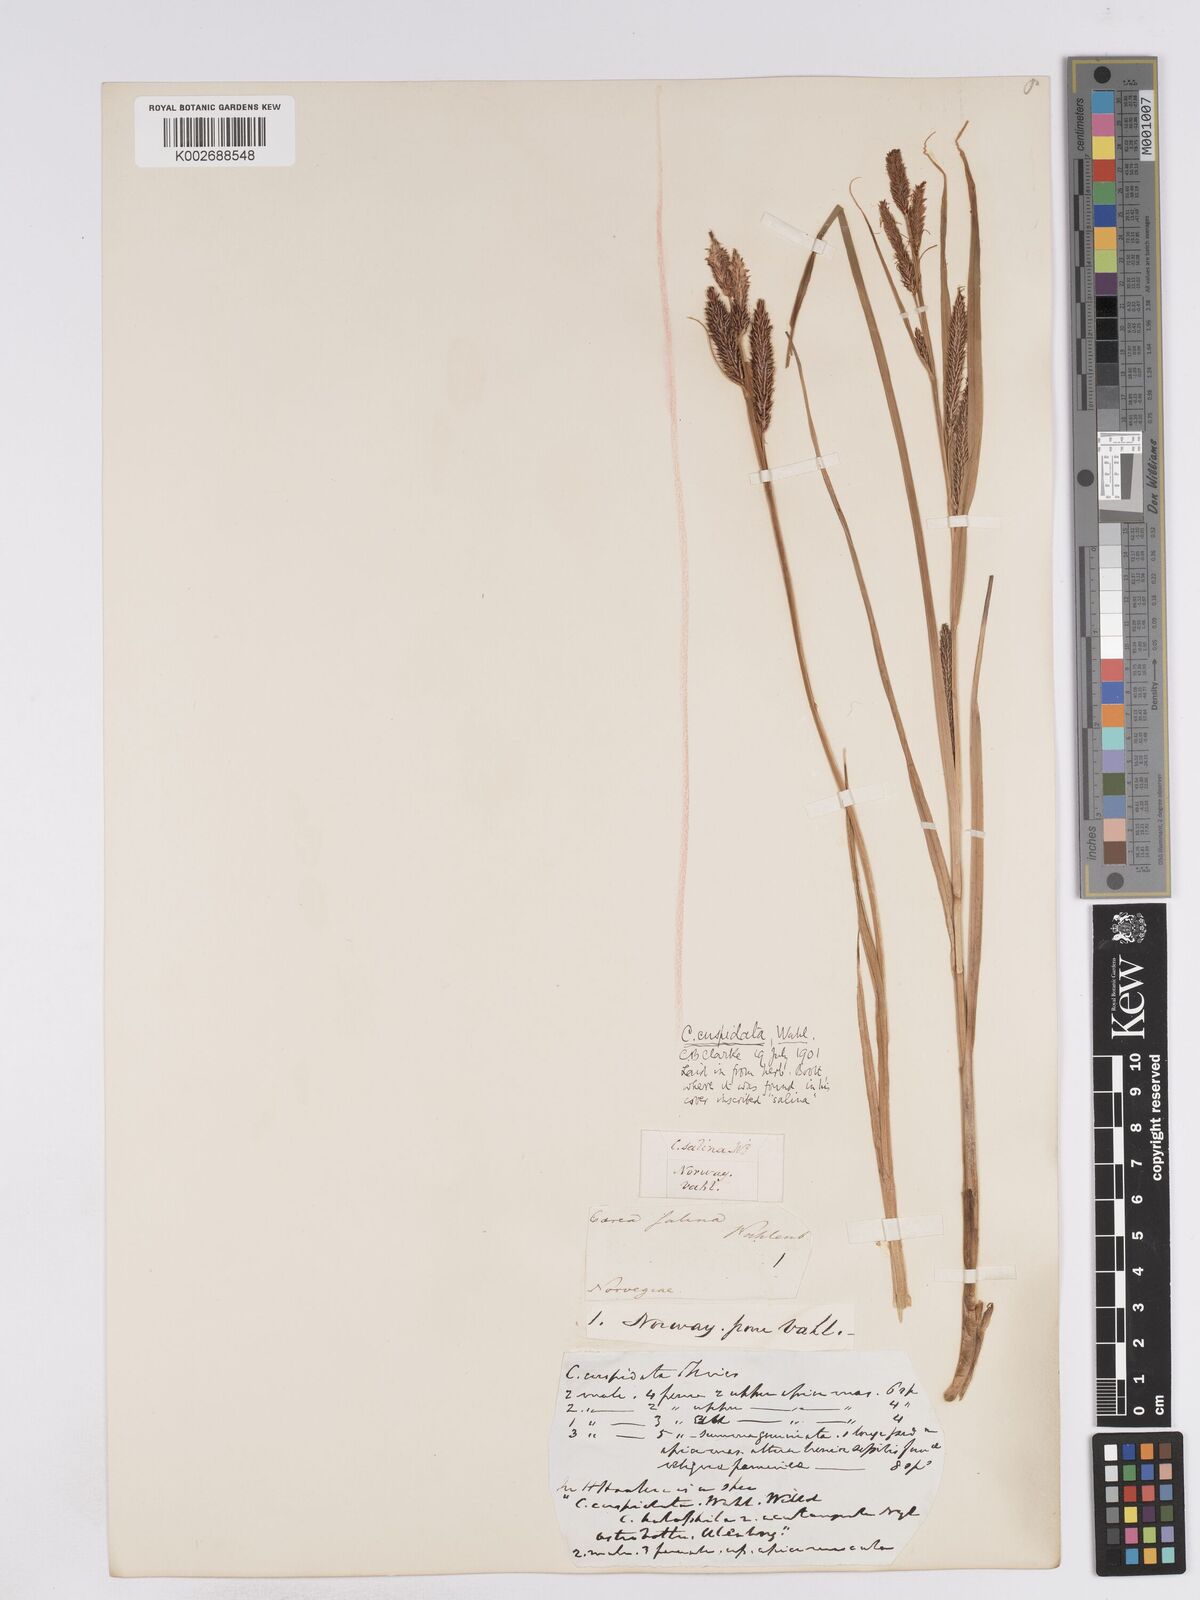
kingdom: Plantae
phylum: Tracheophyta
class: Liliopsida
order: Poales
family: Cyperaceae
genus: Carex
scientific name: Carex recta
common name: Estuarine sedge
